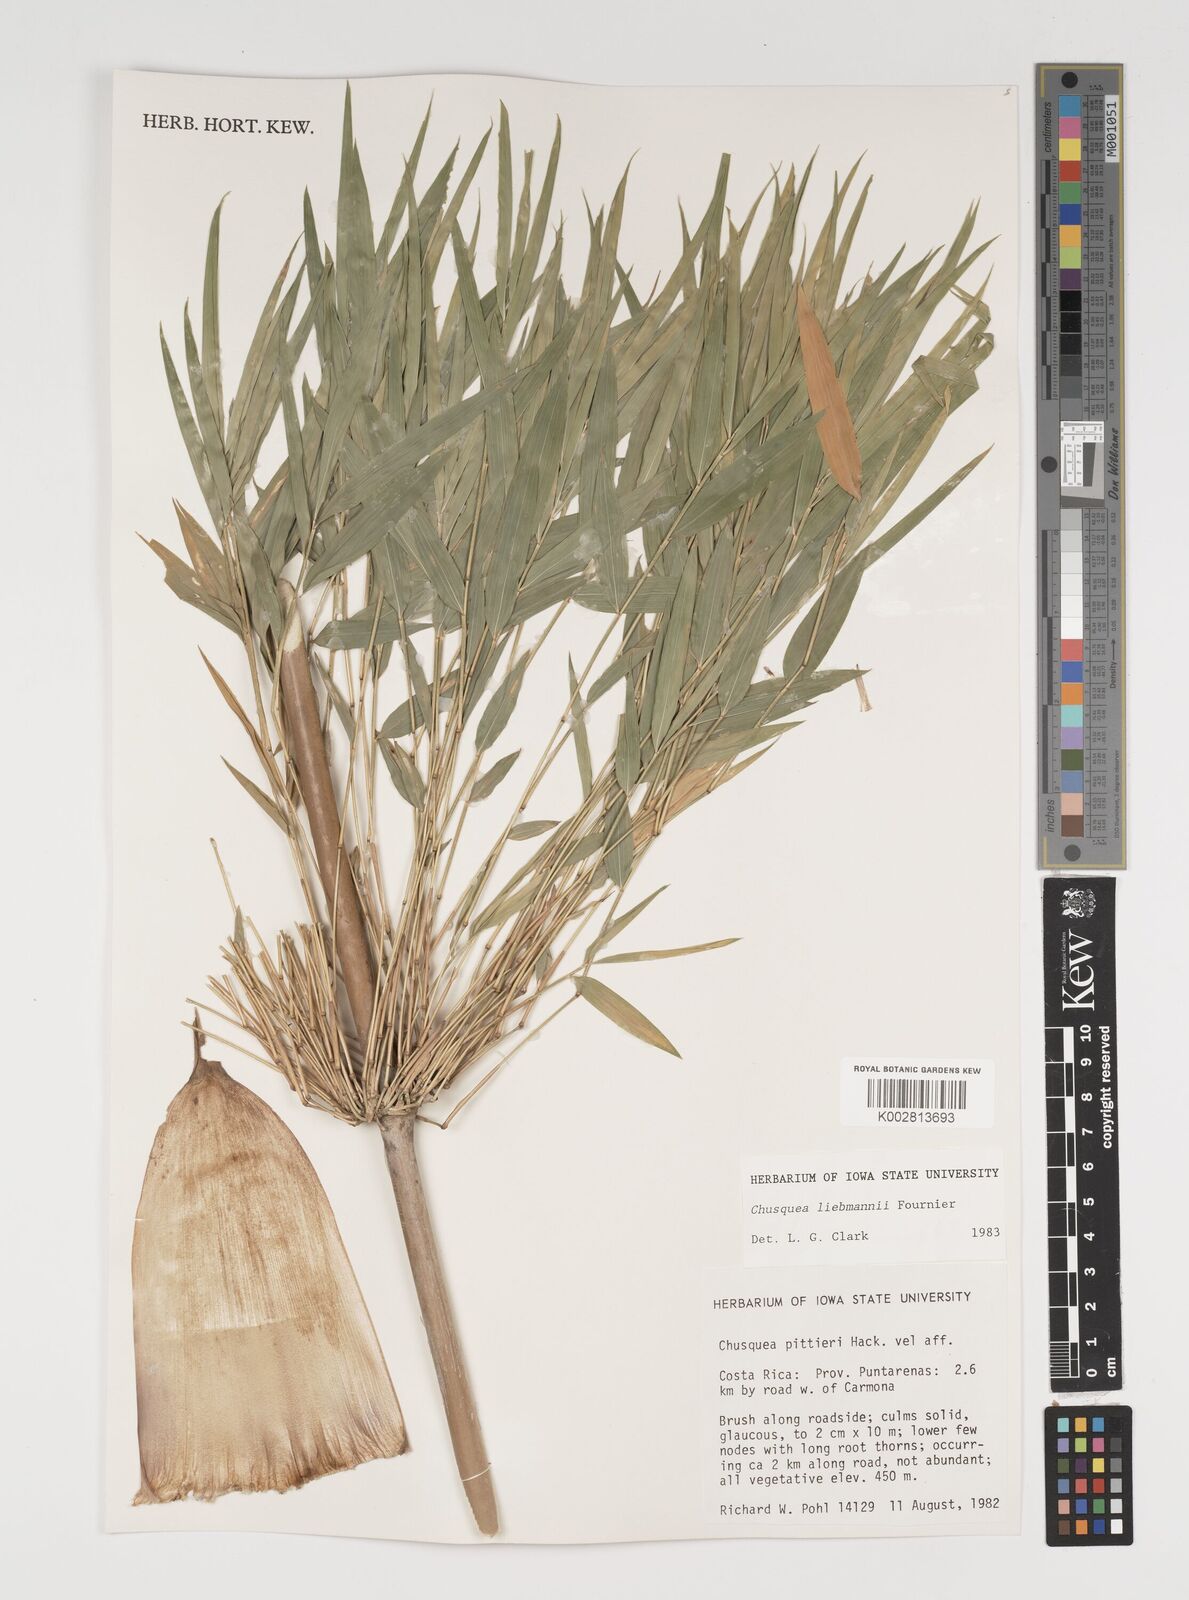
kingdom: Plantae
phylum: Tracheophyta
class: Liliopsida
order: Poales
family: Poaceae
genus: Chusquea
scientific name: Chusquea liebmannii
